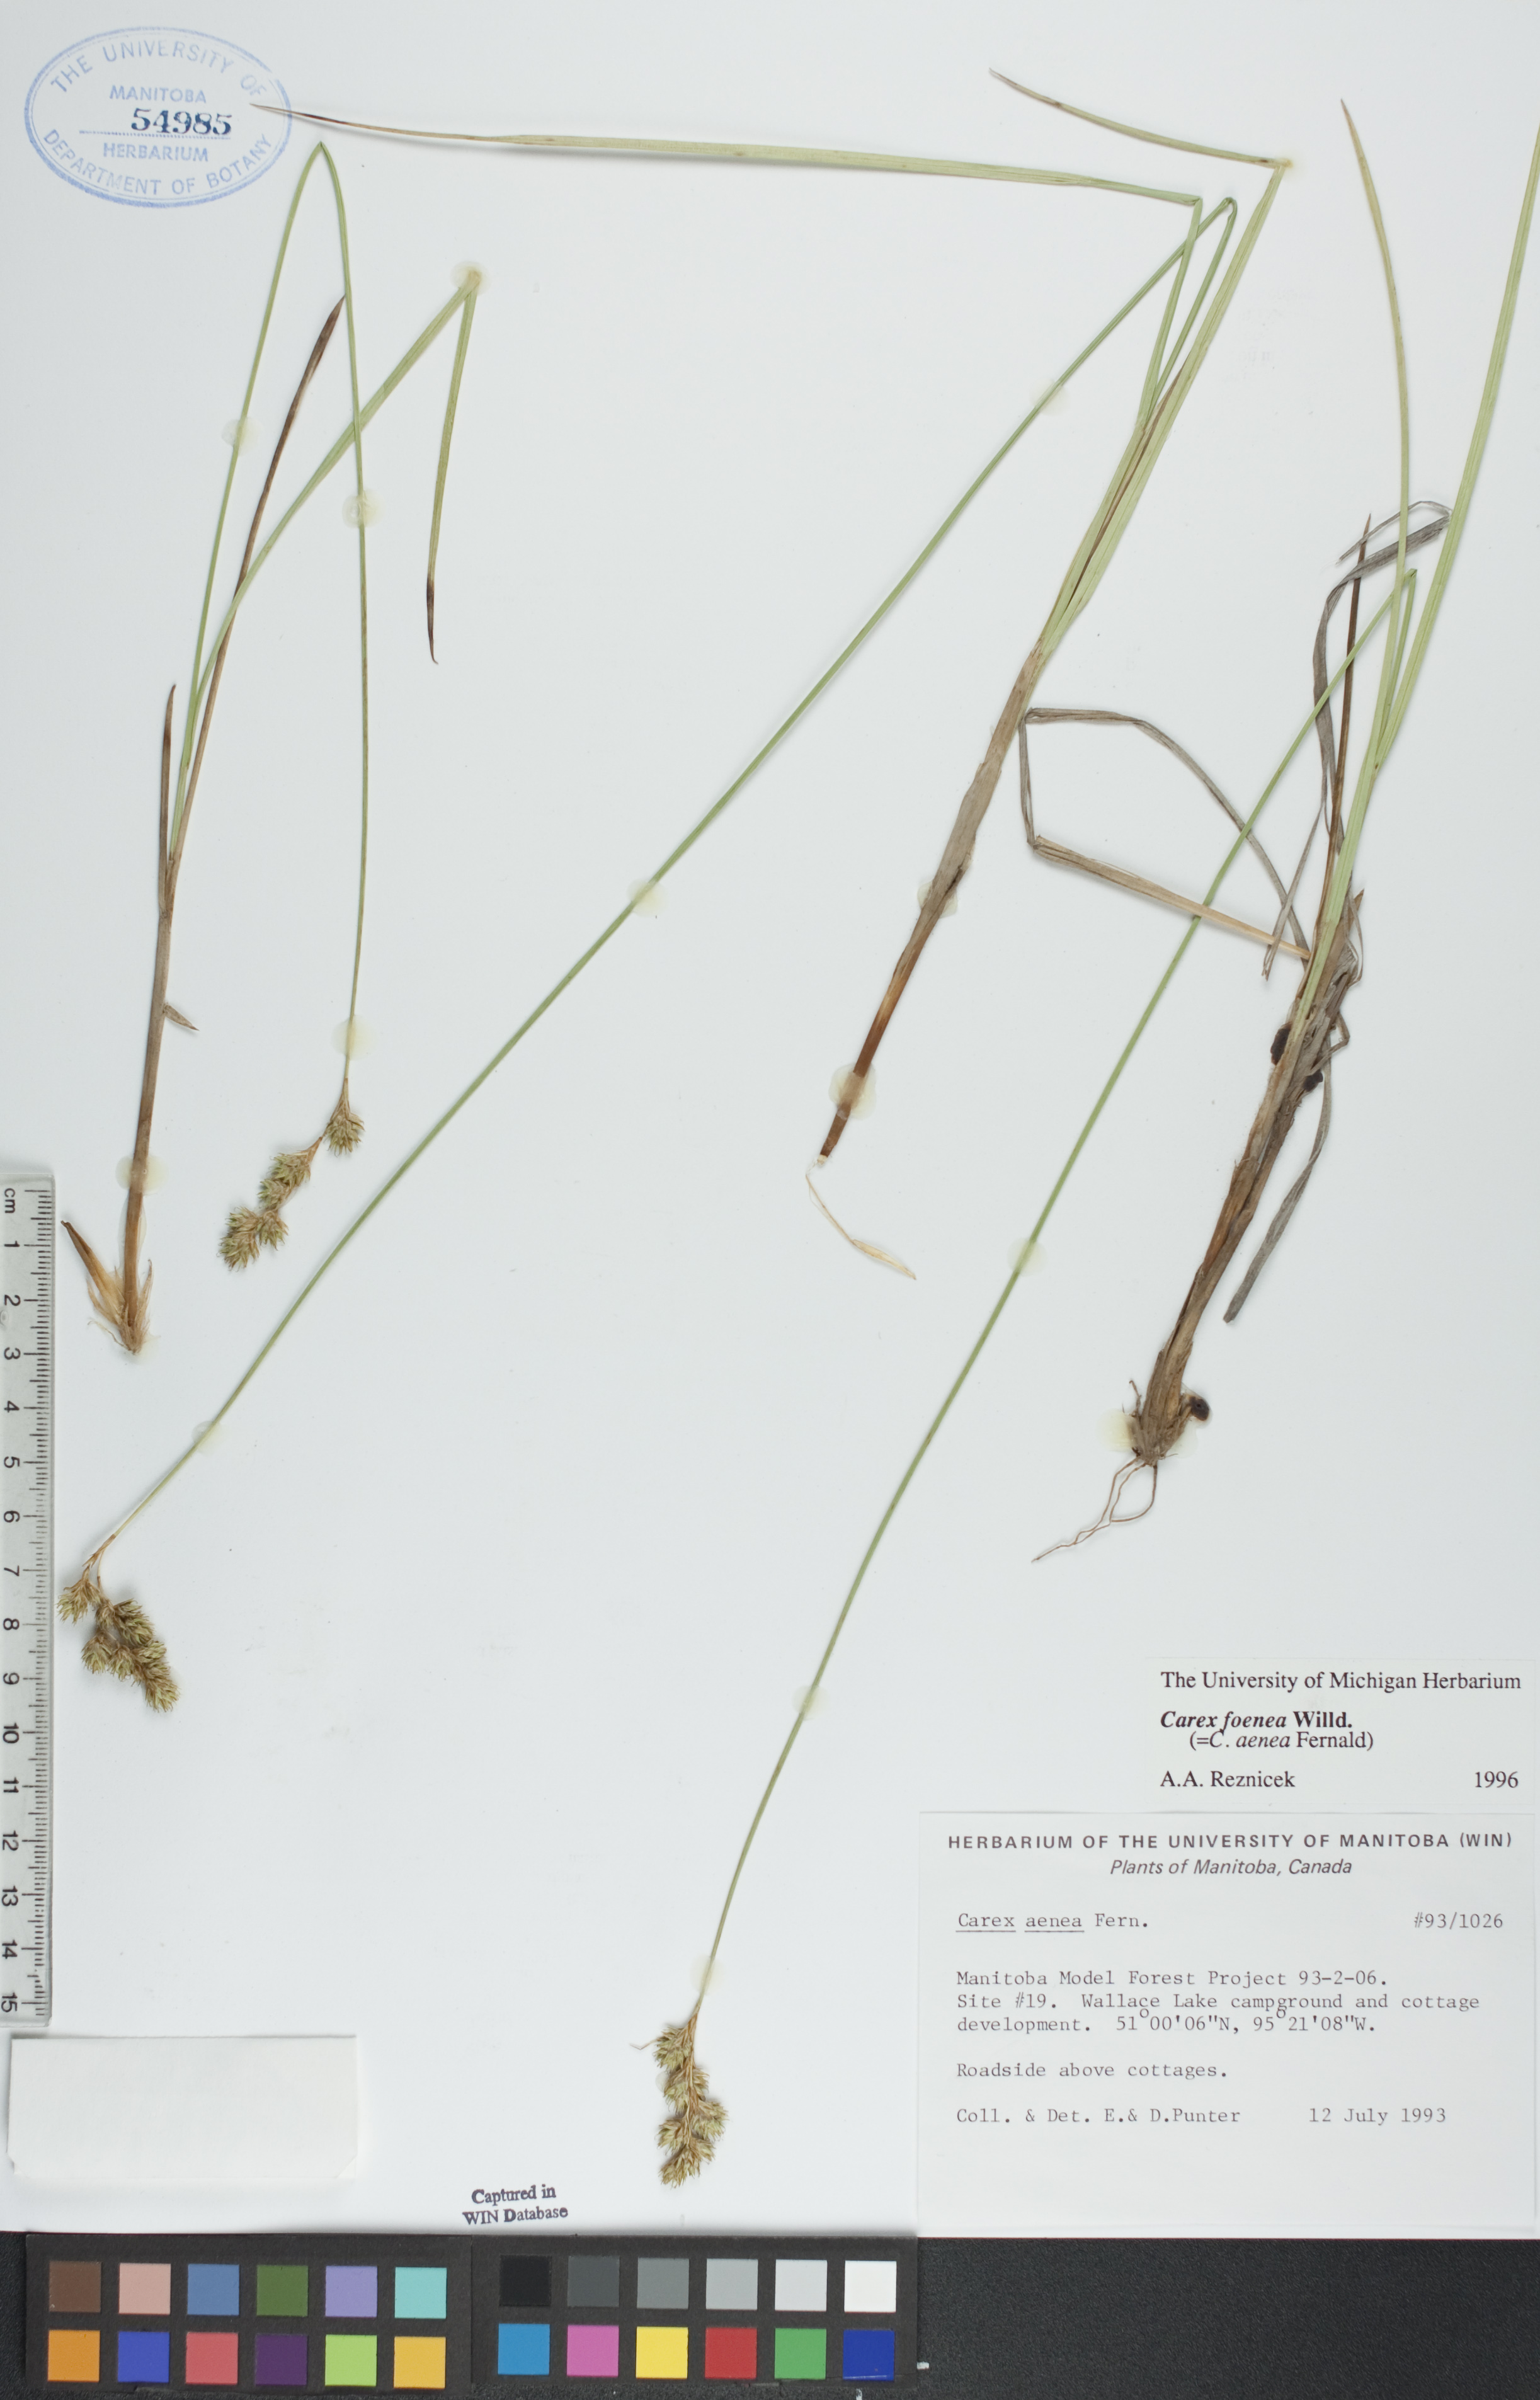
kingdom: Plantae
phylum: Tracheophyta
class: Liliopsida
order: Poales
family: Cyperaceae
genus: Carex
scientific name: Carex foenea
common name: Bronze sedge
